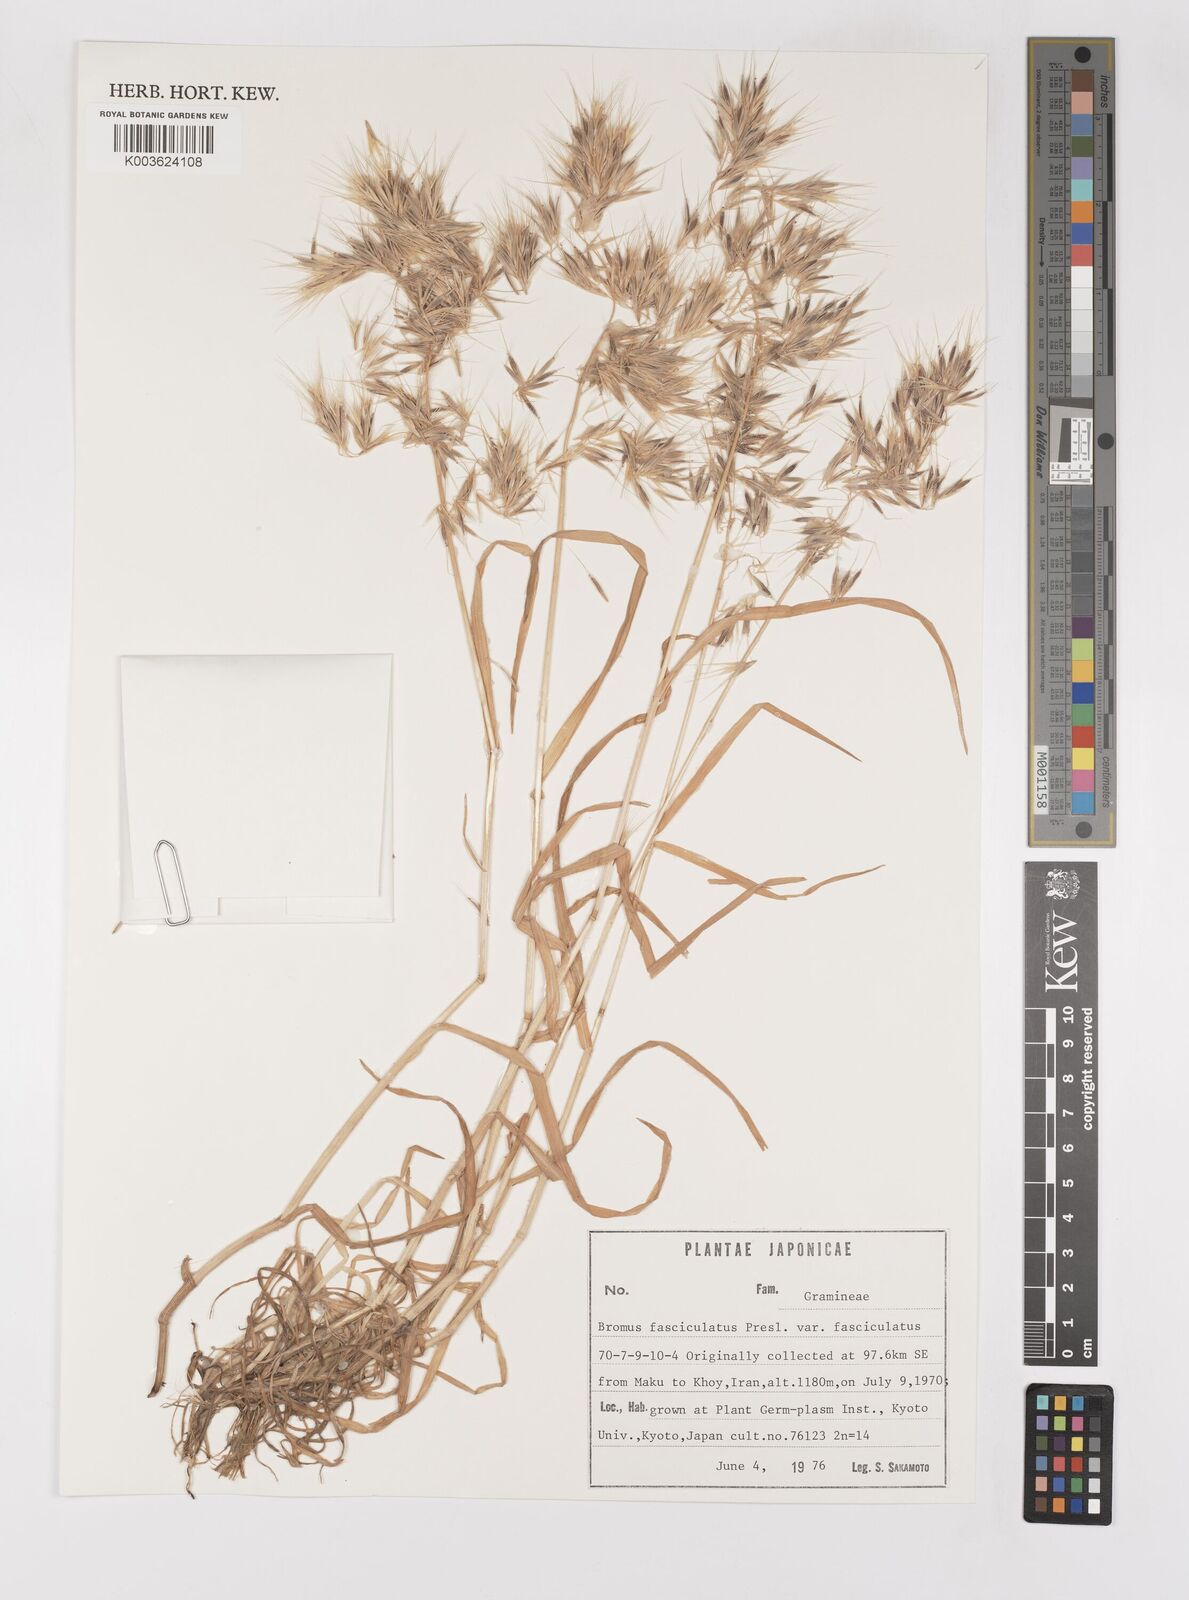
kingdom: Plantae
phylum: Tracheophyta
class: Liliopsida
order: Poales
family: Poaceae
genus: Bromus
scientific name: Bromus fasciculatus
